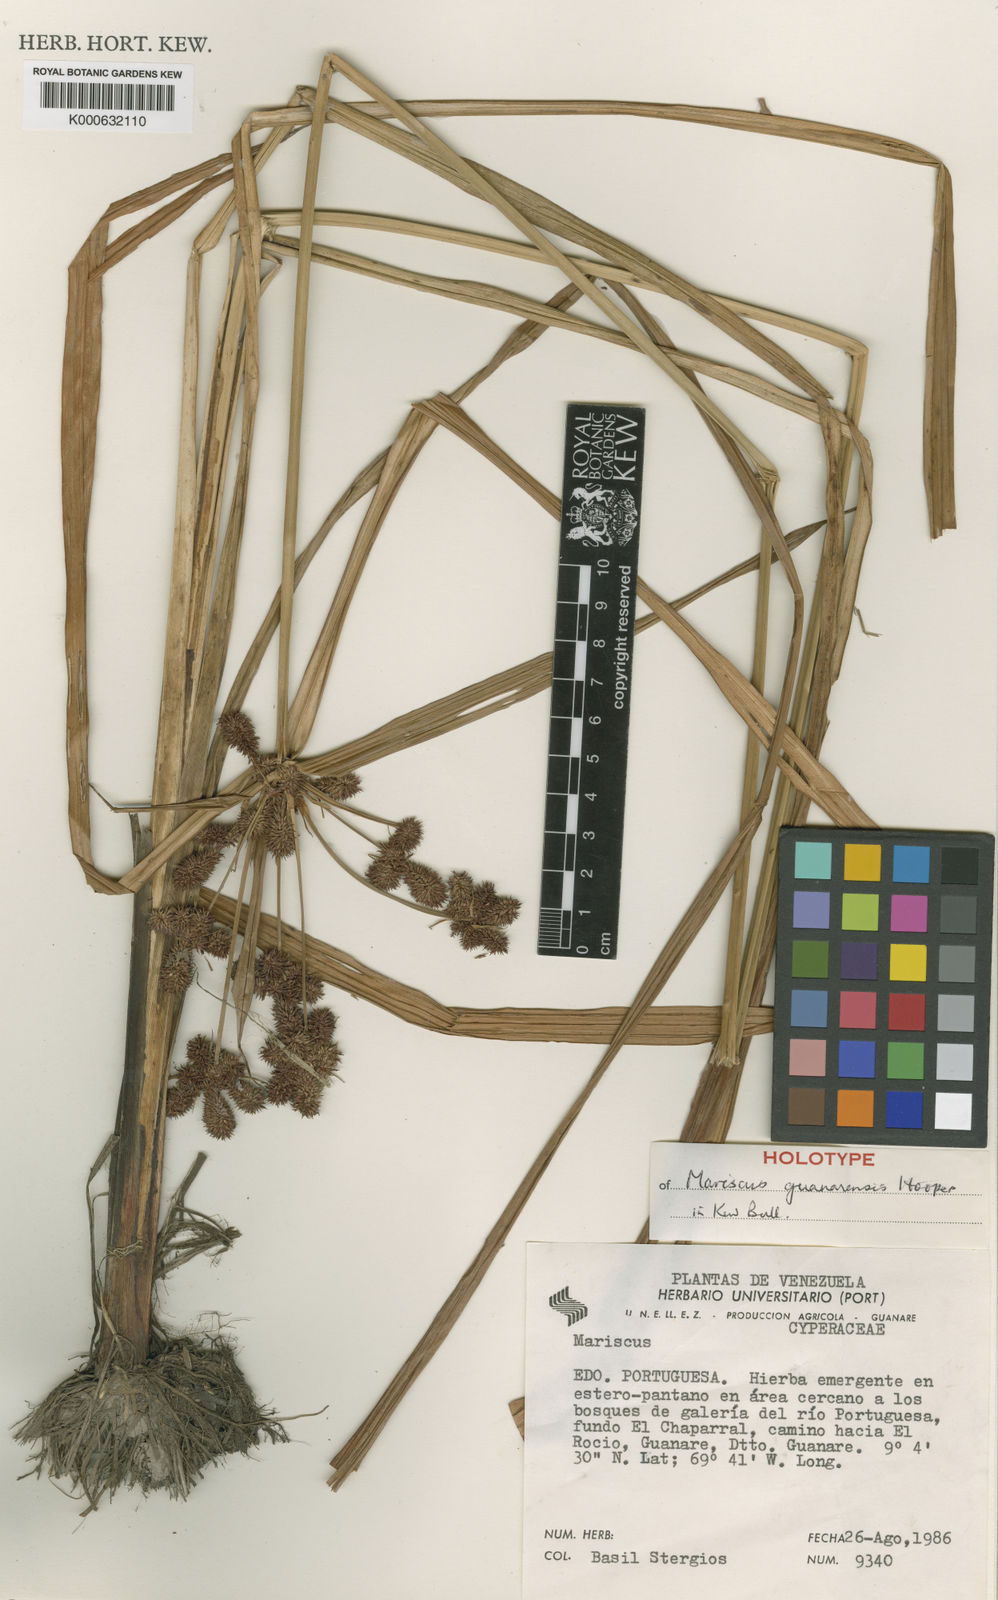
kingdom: Plantae
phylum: Tracheophyta
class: Liliopsida
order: Poales
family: Cyperaceae
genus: Cyperus
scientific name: Cyperus
